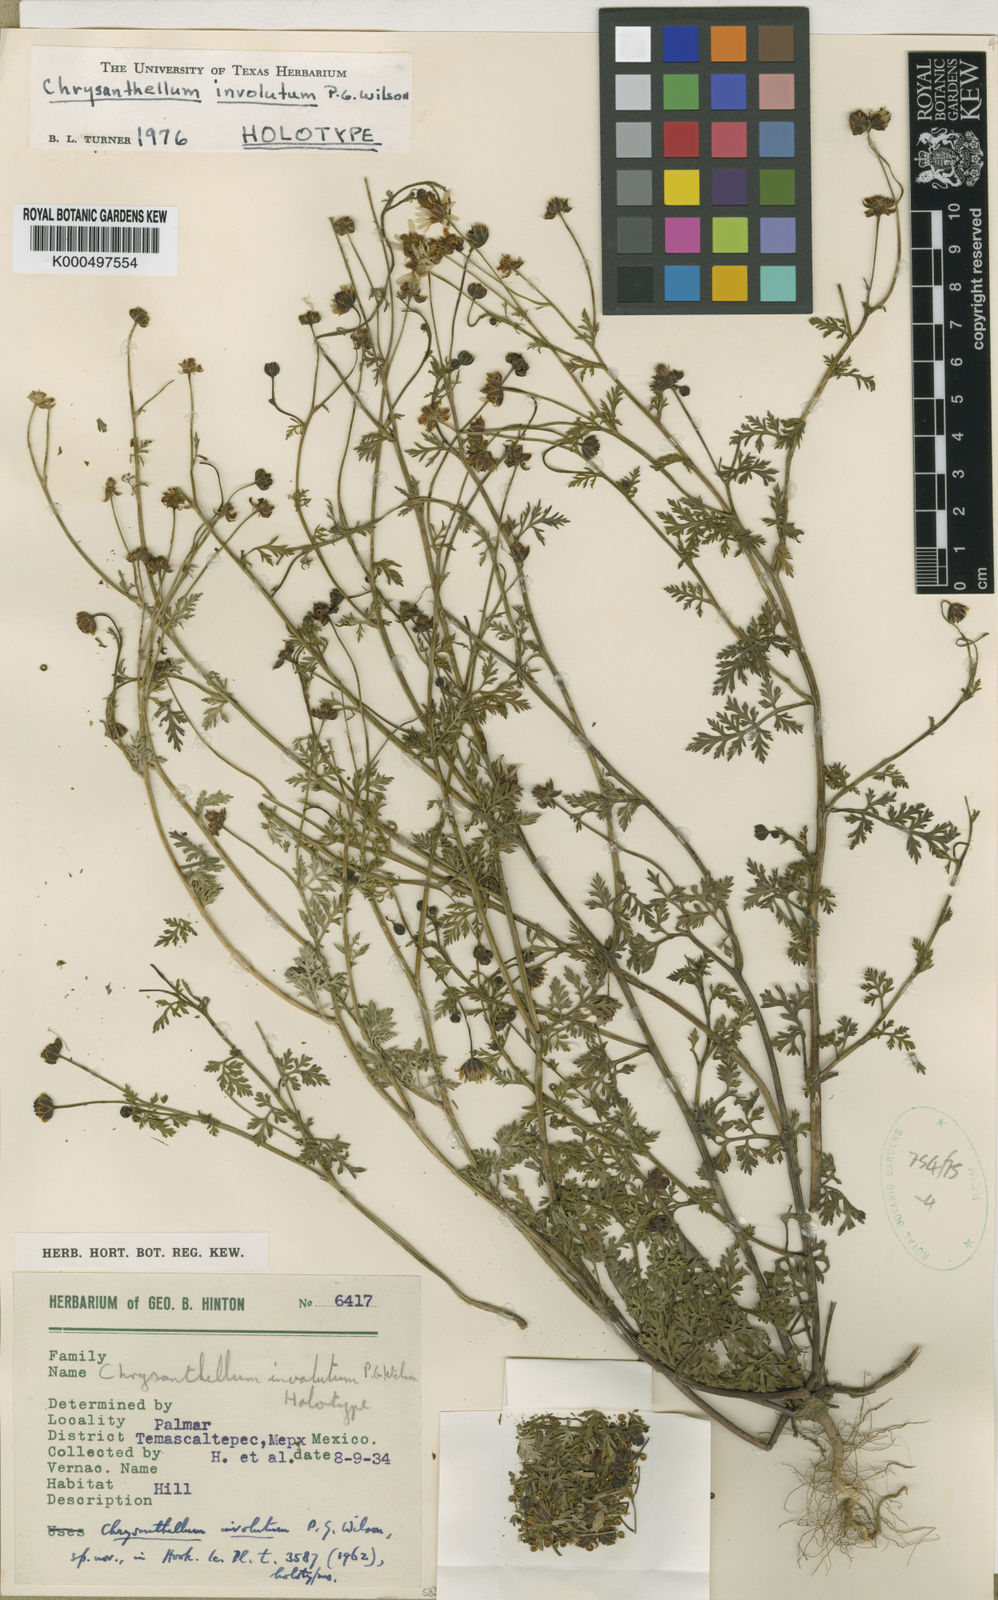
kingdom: Plantae
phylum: Tracheophyta
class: Magnoliopsida
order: Asterales
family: Asteraceae
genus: Chrysanthellum
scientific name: Chrysanthellum involutum
